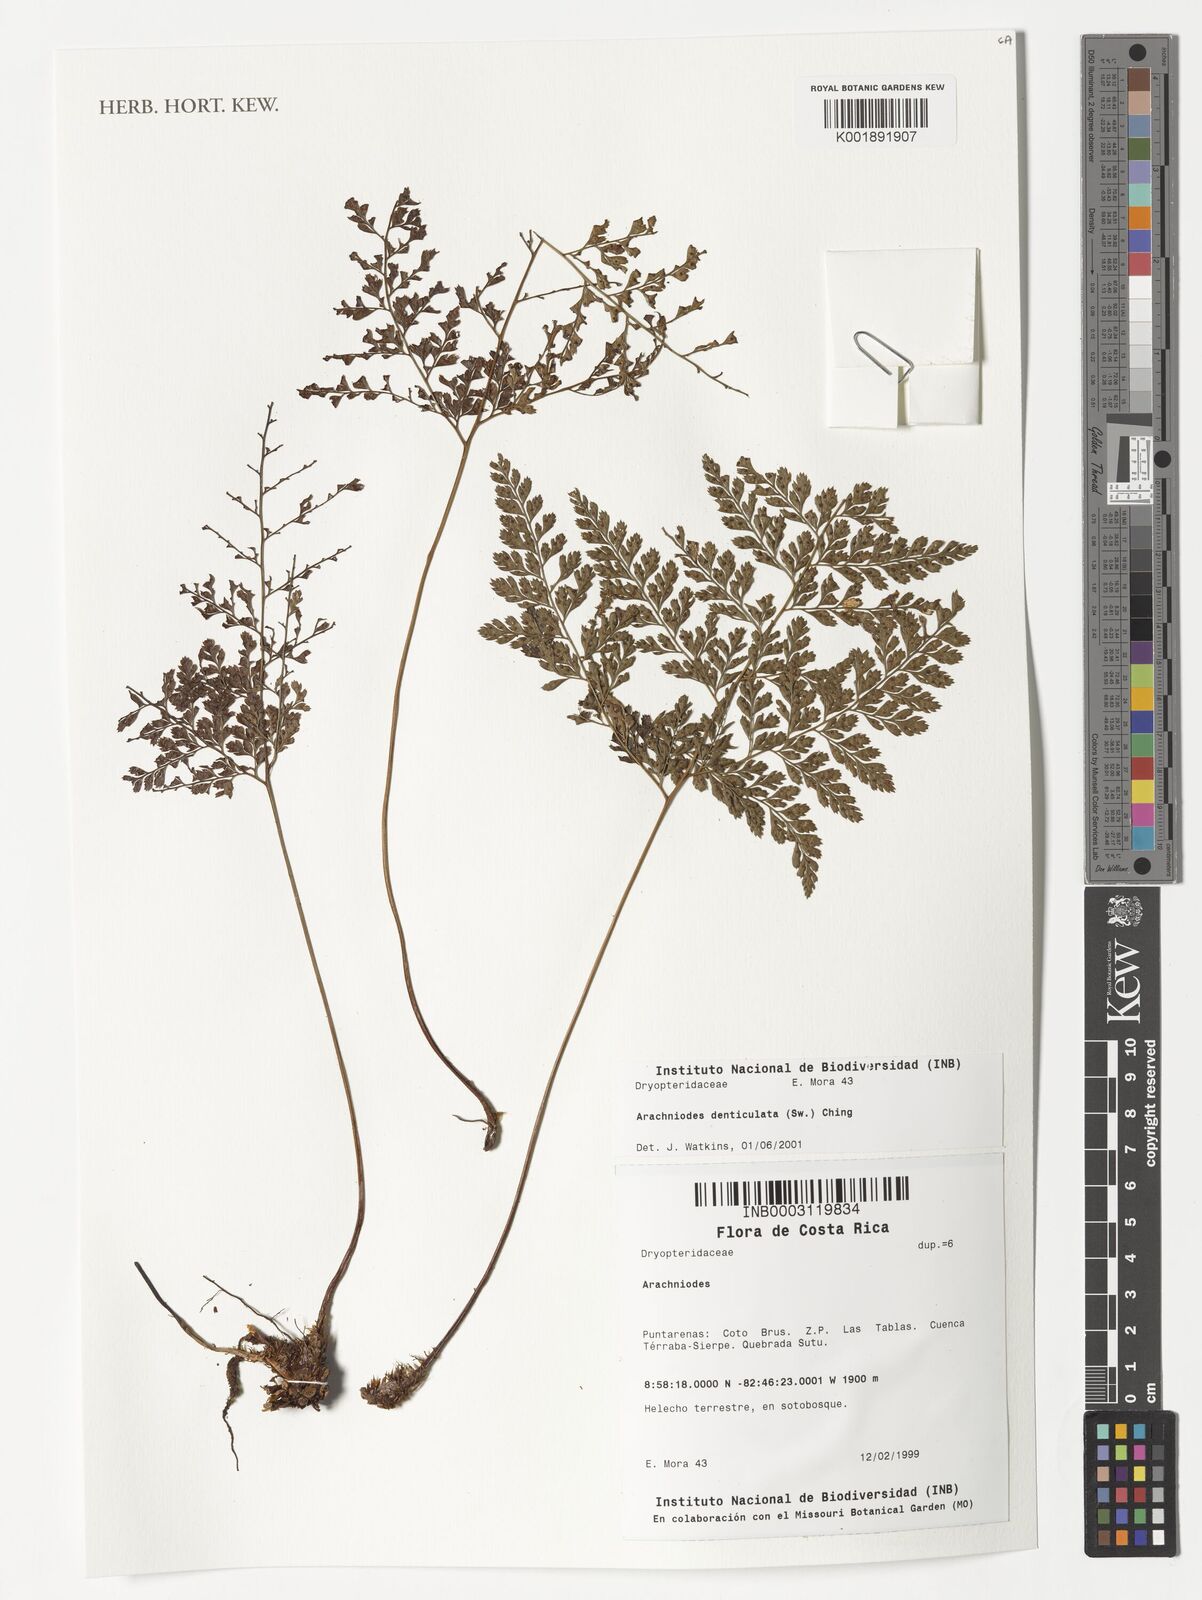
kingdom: Plantae
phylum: Tracheophyta
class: Polypodiopsida
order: Polypodiales
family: Dryopteridaceae
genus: Arachniodes
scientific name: Arachniodes denticulata
